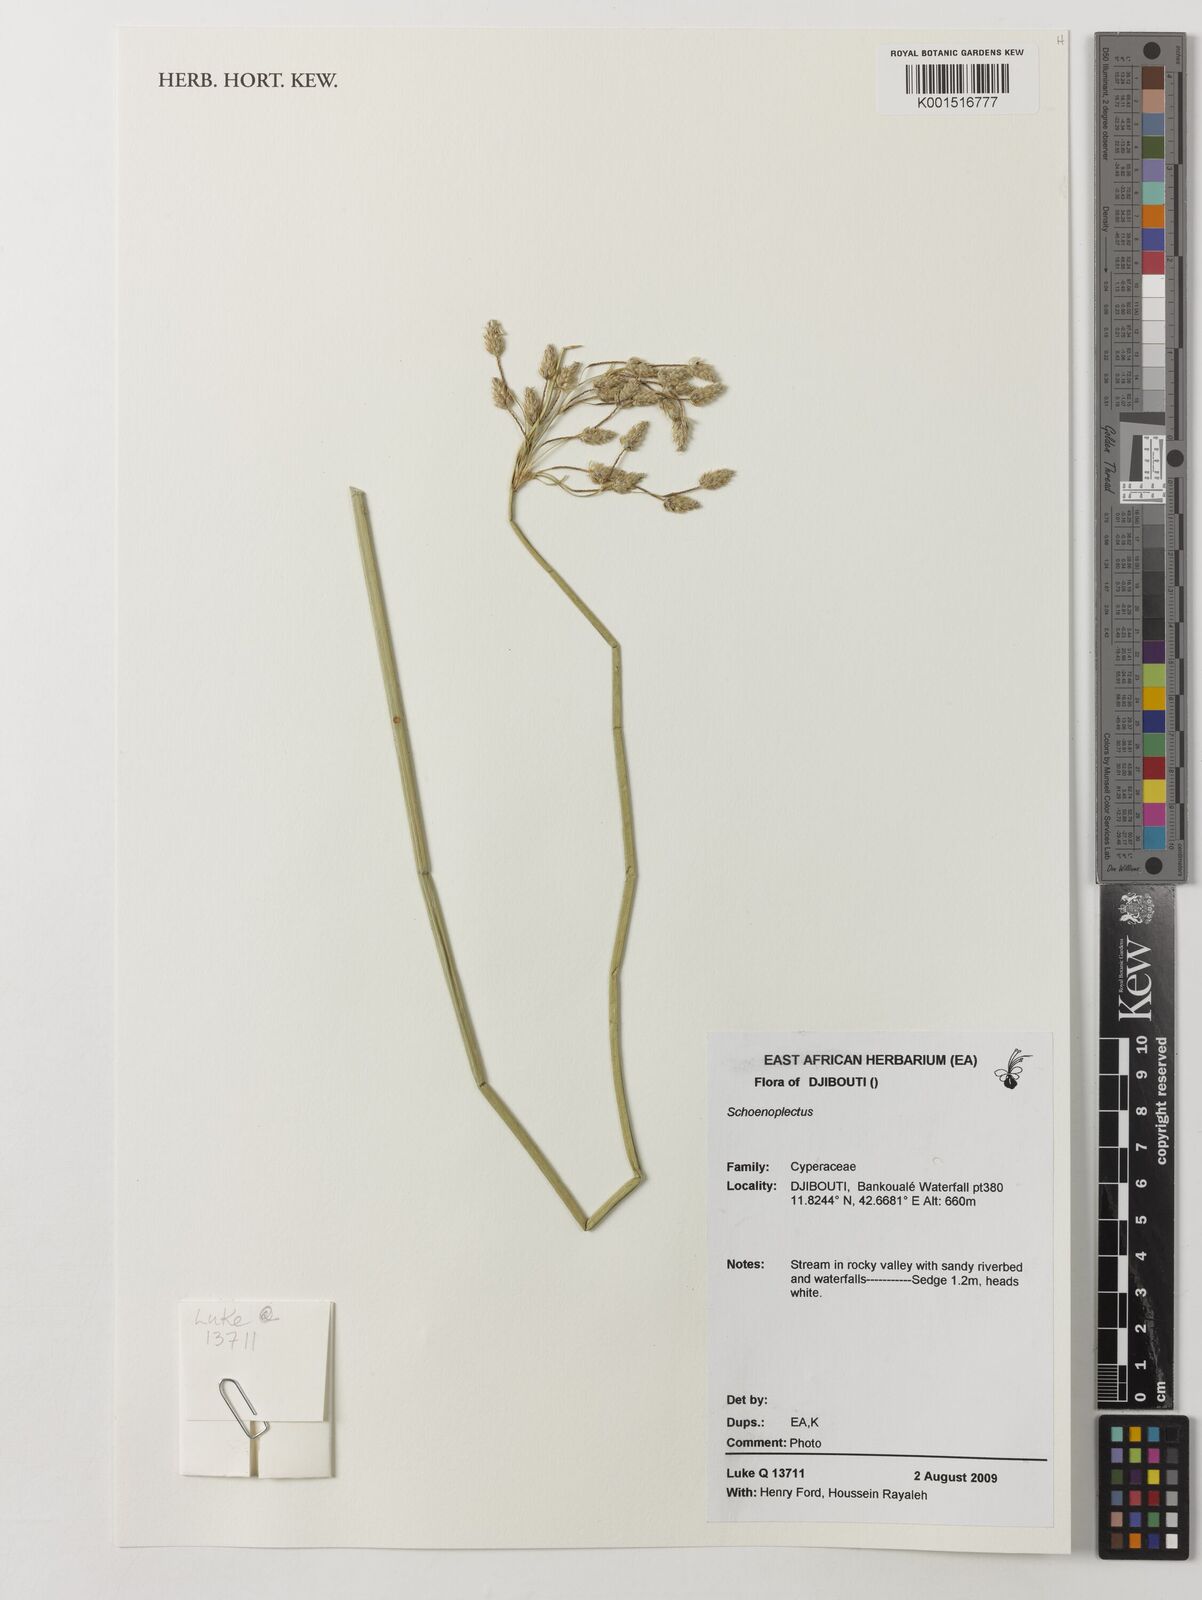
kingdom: Plantae
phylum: Tracheophyta
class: Liliopsida
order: Poales
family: Cyperaceae
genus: Schoenoplectus
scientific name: Schoenoplectus subulatus
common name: Coast club-rush
